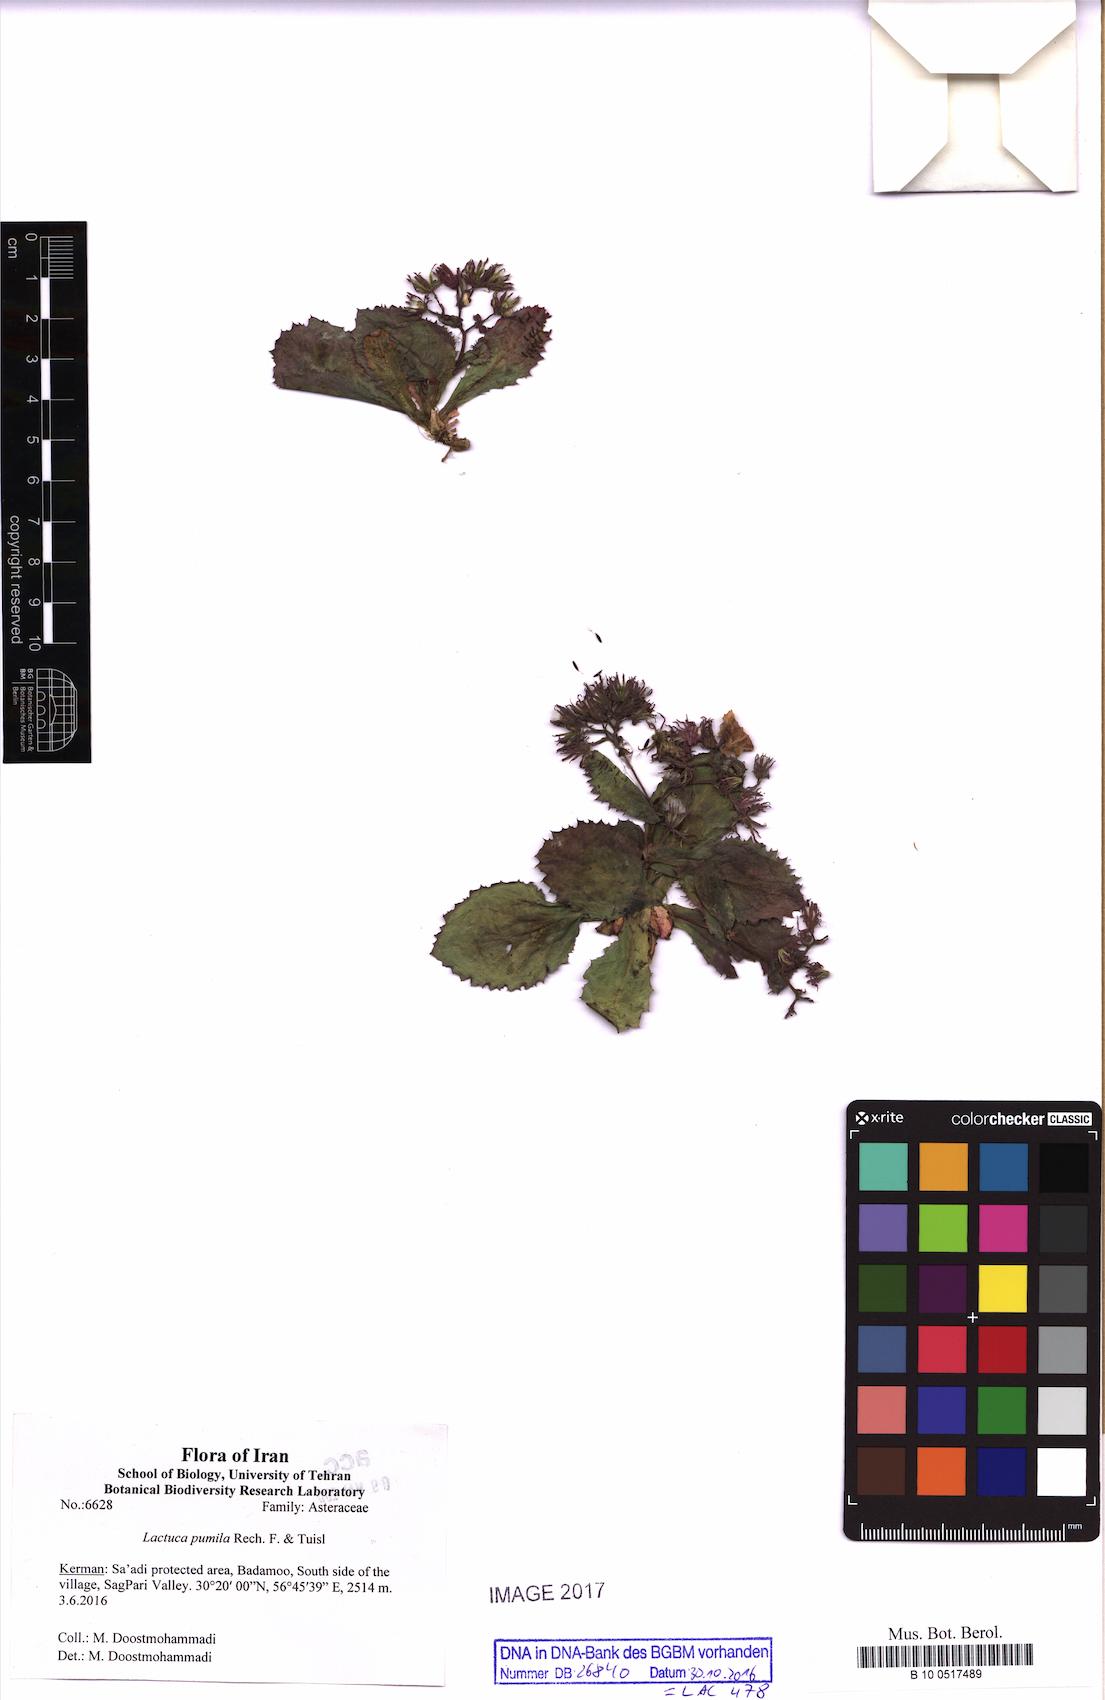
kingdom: Plantae
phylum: Tracheophyta
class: Magnoliopsida
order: Asterales
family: Asteraceae
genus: Lactuca
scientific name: Lactuca pumila
